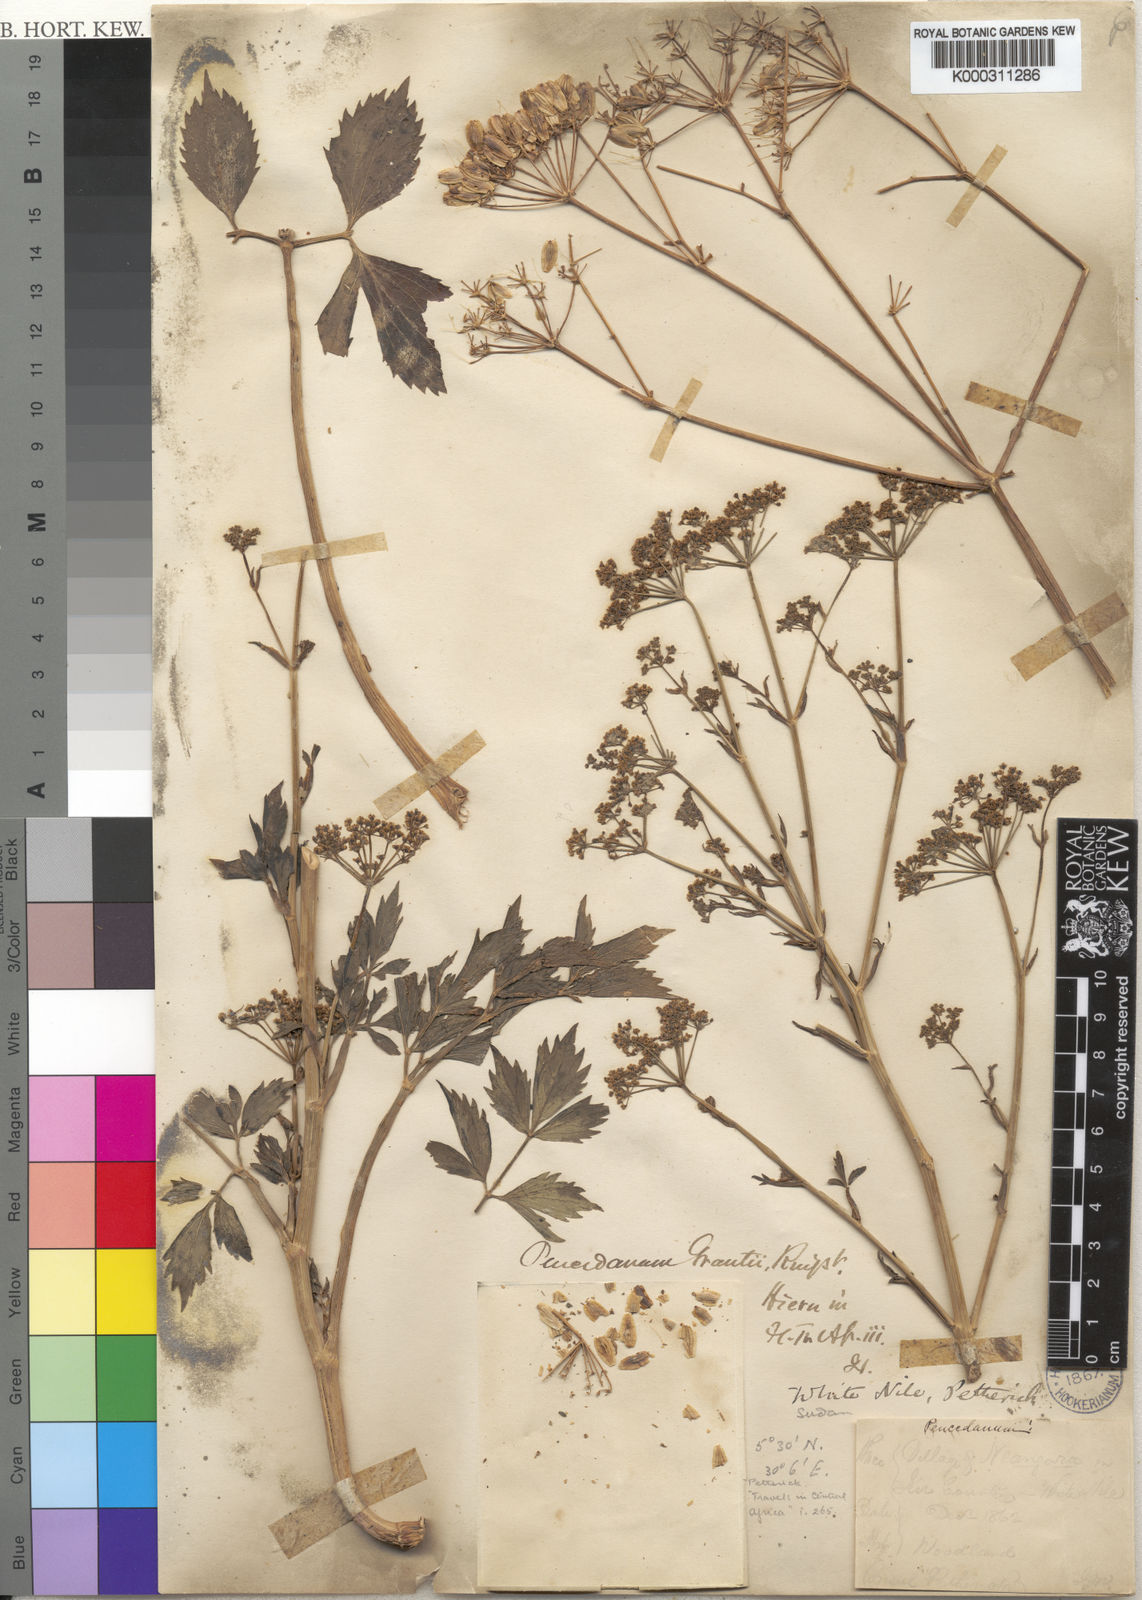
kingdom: Plantae
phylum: Tracheophyta
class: Magnoliopsida
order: Apiales
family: Apiaceae
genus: Peucedanum
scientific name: Peucedanum
